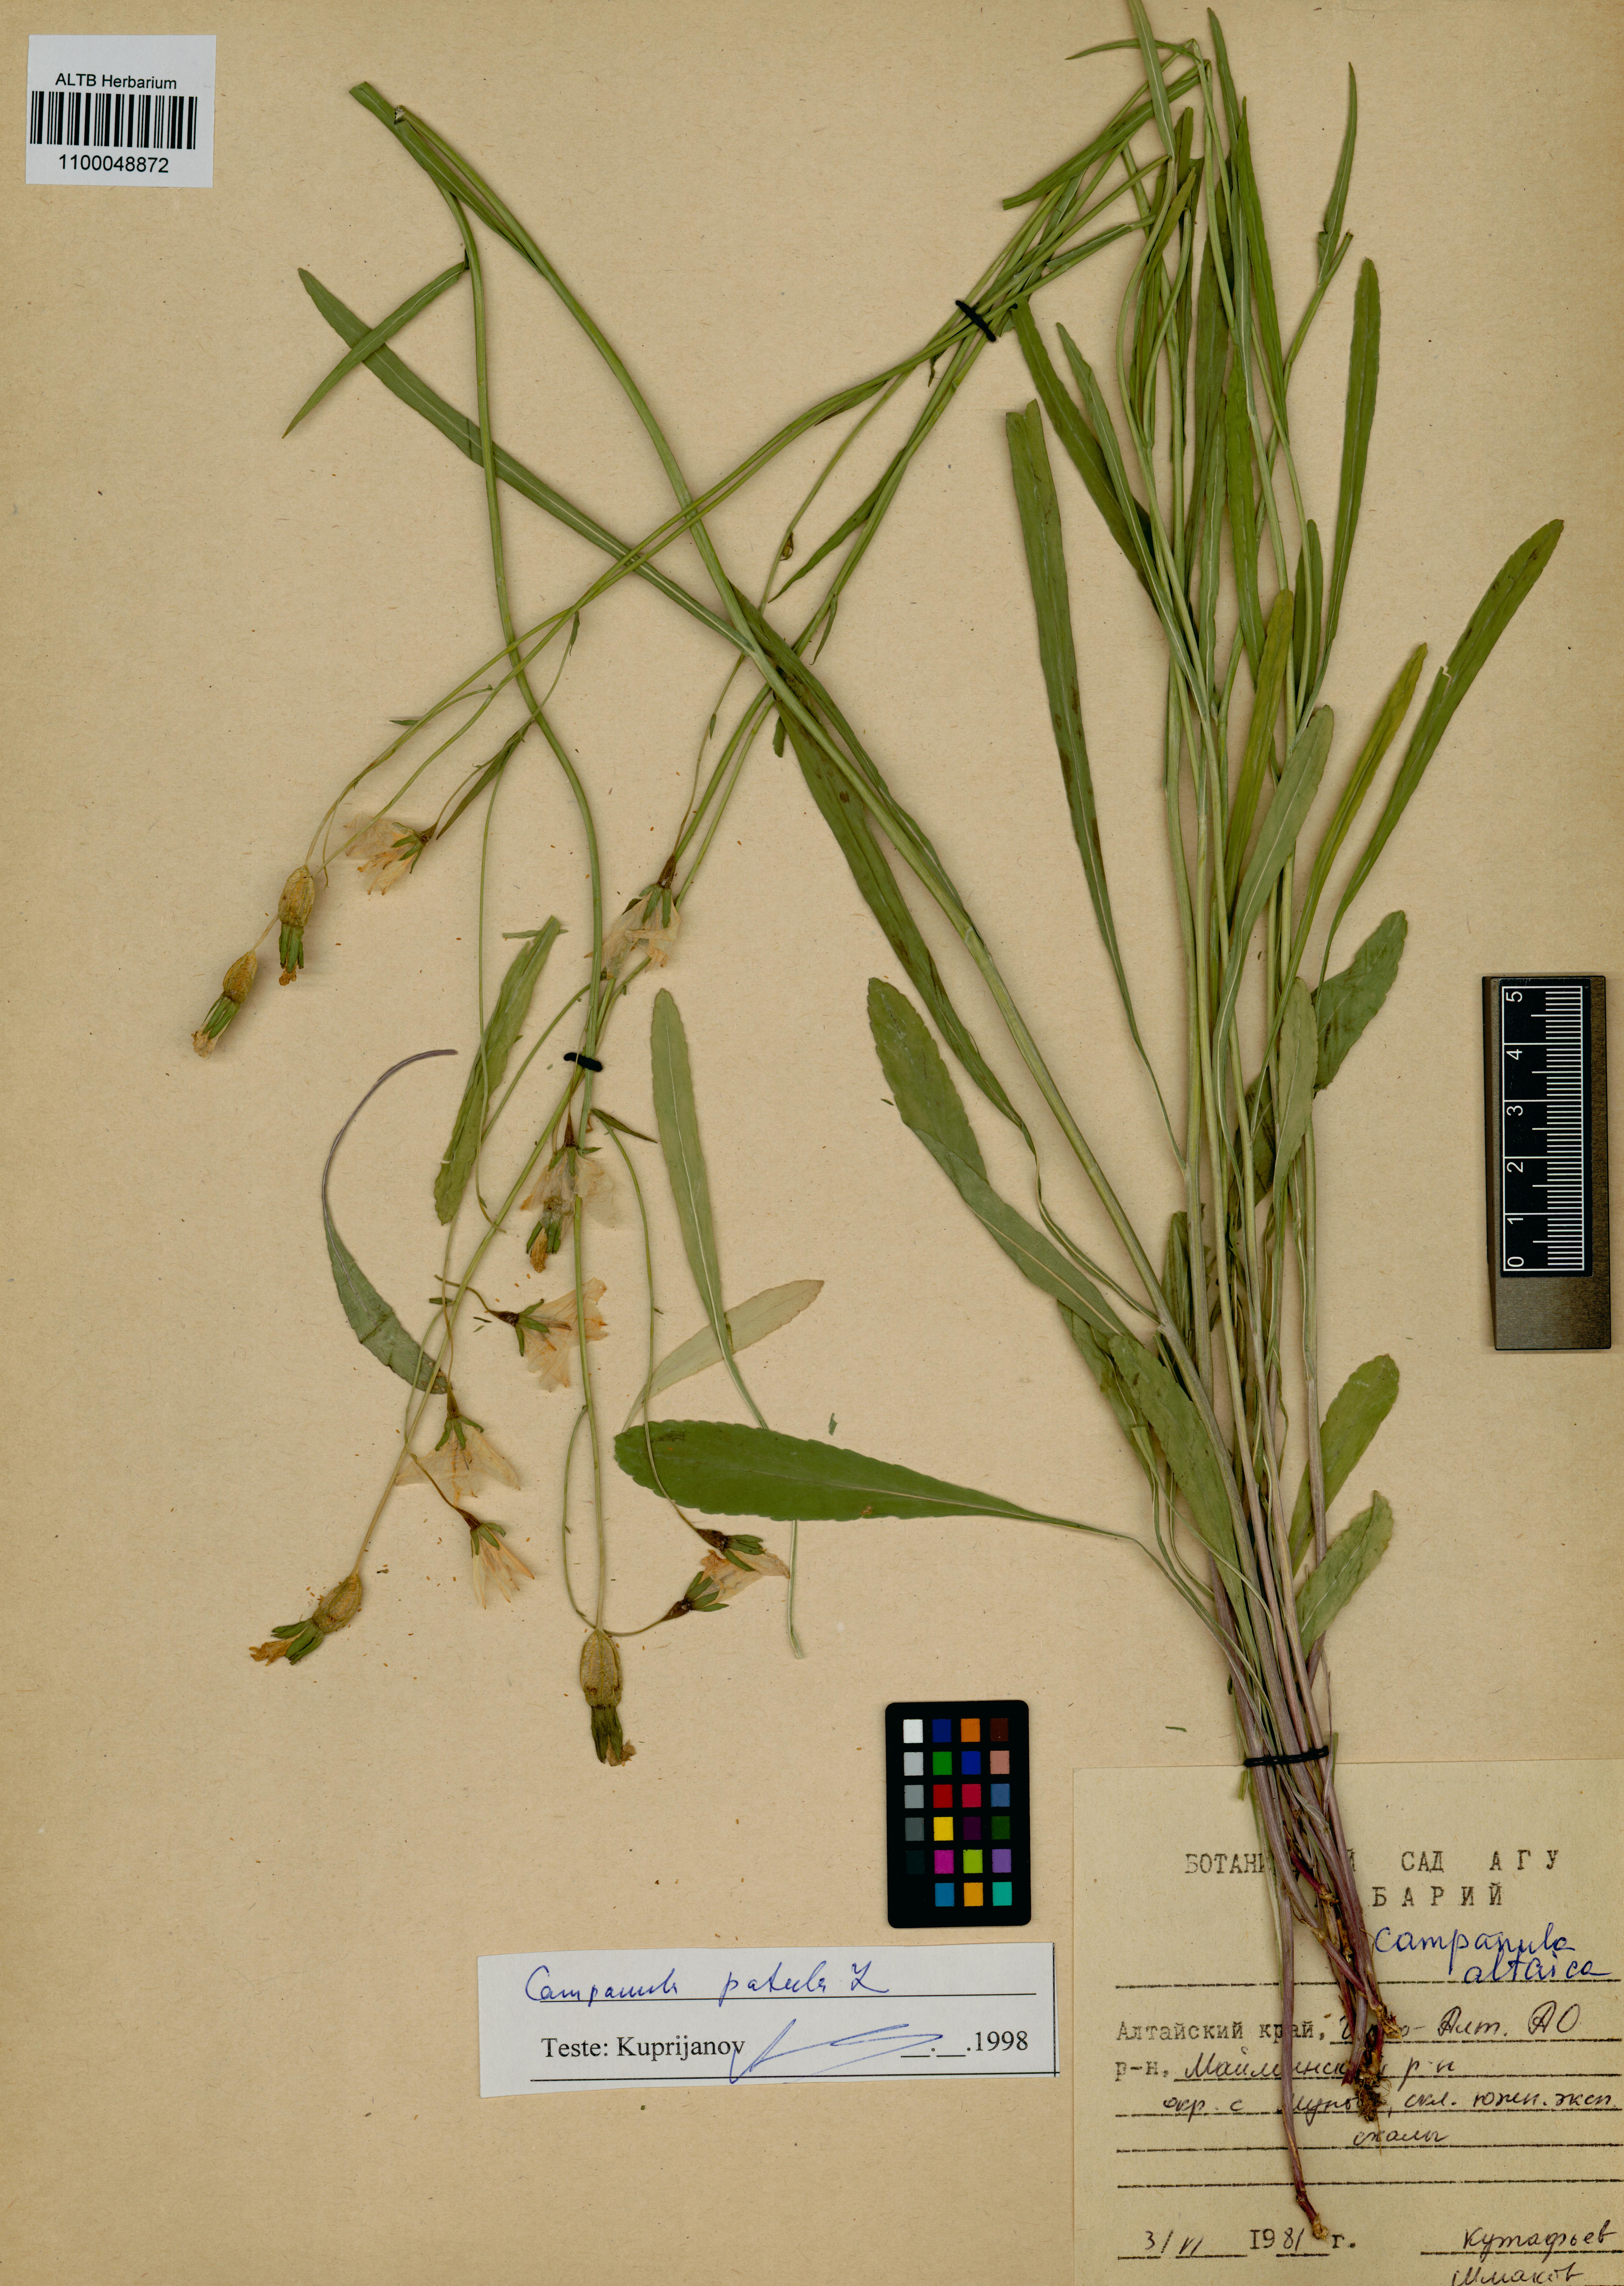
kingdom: Plantae
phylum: Tracheophyta
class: Magnoliopsida
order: Asterales
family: Campanulaceae
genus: Campanula
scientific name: Campanula patula
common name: Spreading bellflower
